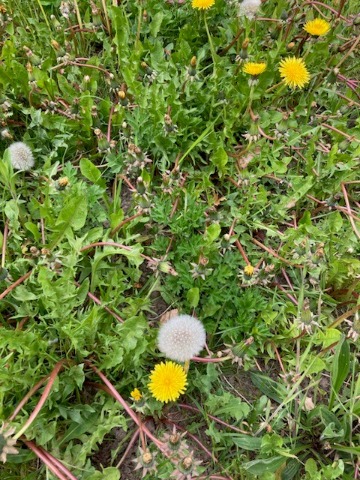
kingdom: Plantae
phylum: Tracheophyta
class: Magnoliopsida
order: Asterales
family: Asteraceae
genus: Taraxacum
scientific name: Taraxacum
